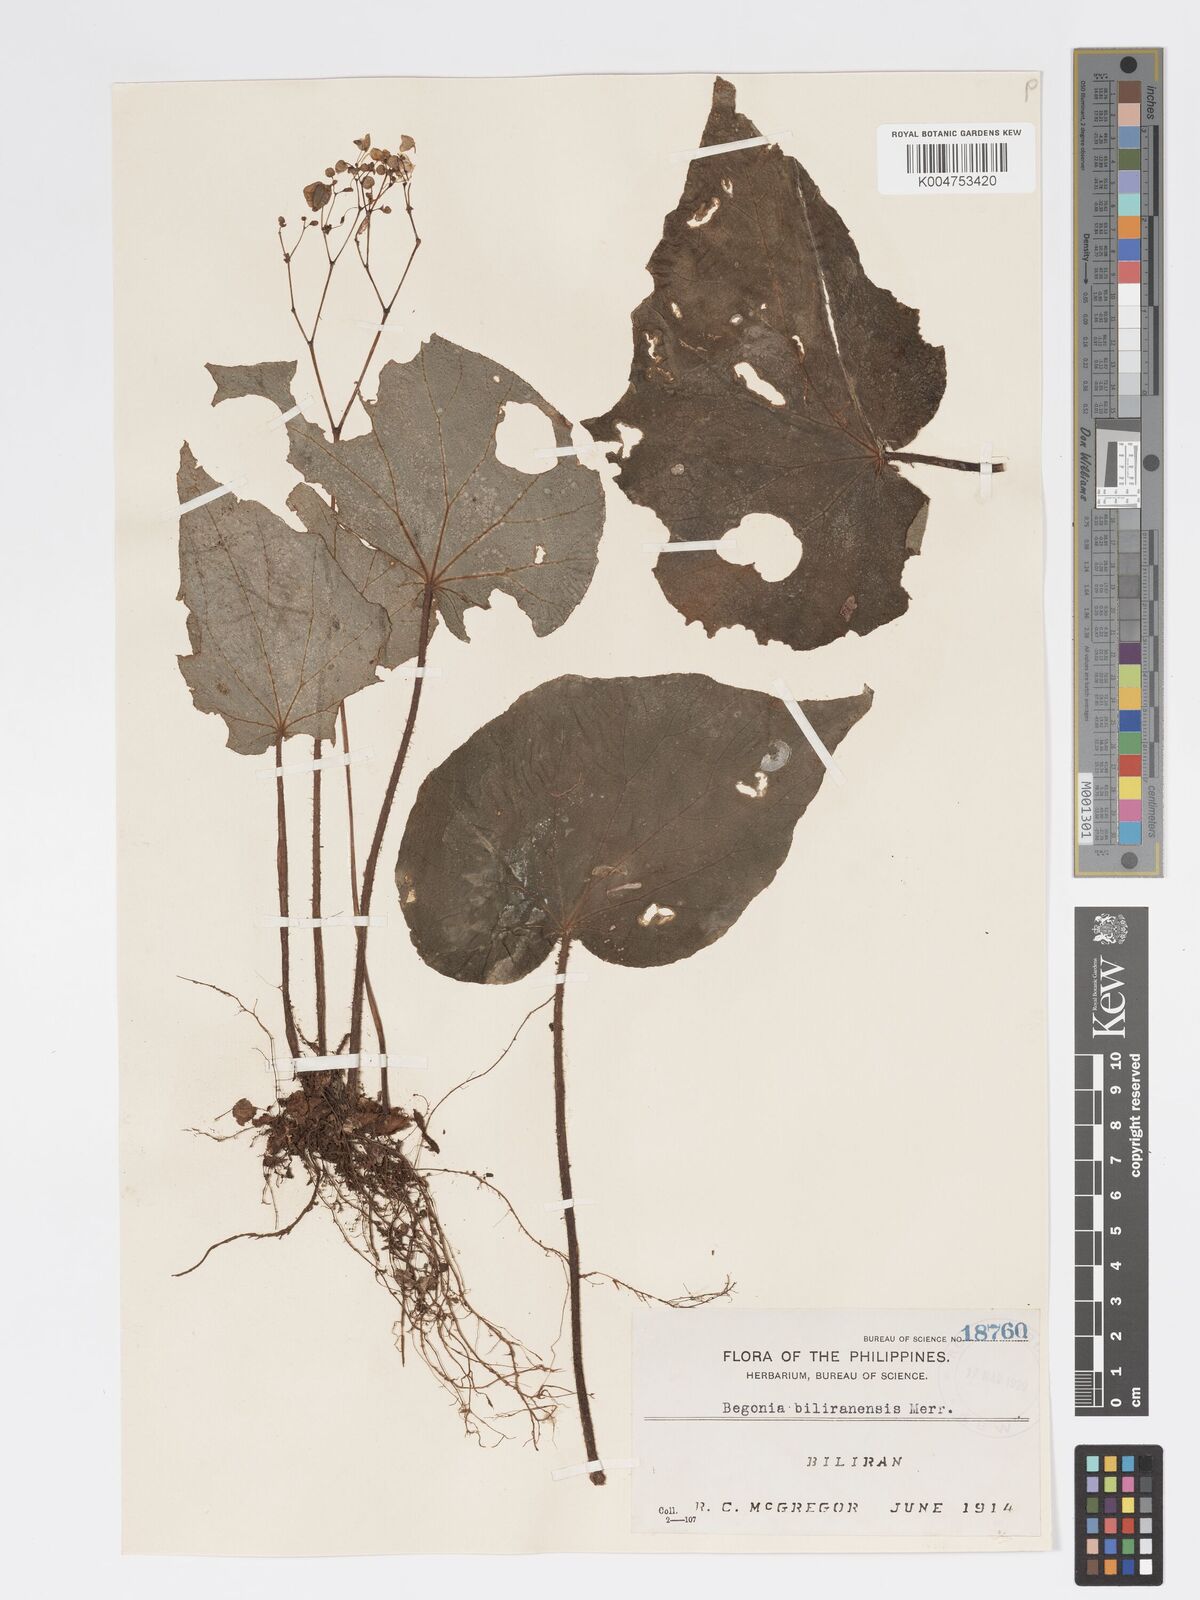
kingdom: Plantae
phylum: Tracheophyta
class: Magnoliopsida
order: Cucurbitales
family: Begoniaceae
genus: Begonia
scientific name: Begonia biliranensis
